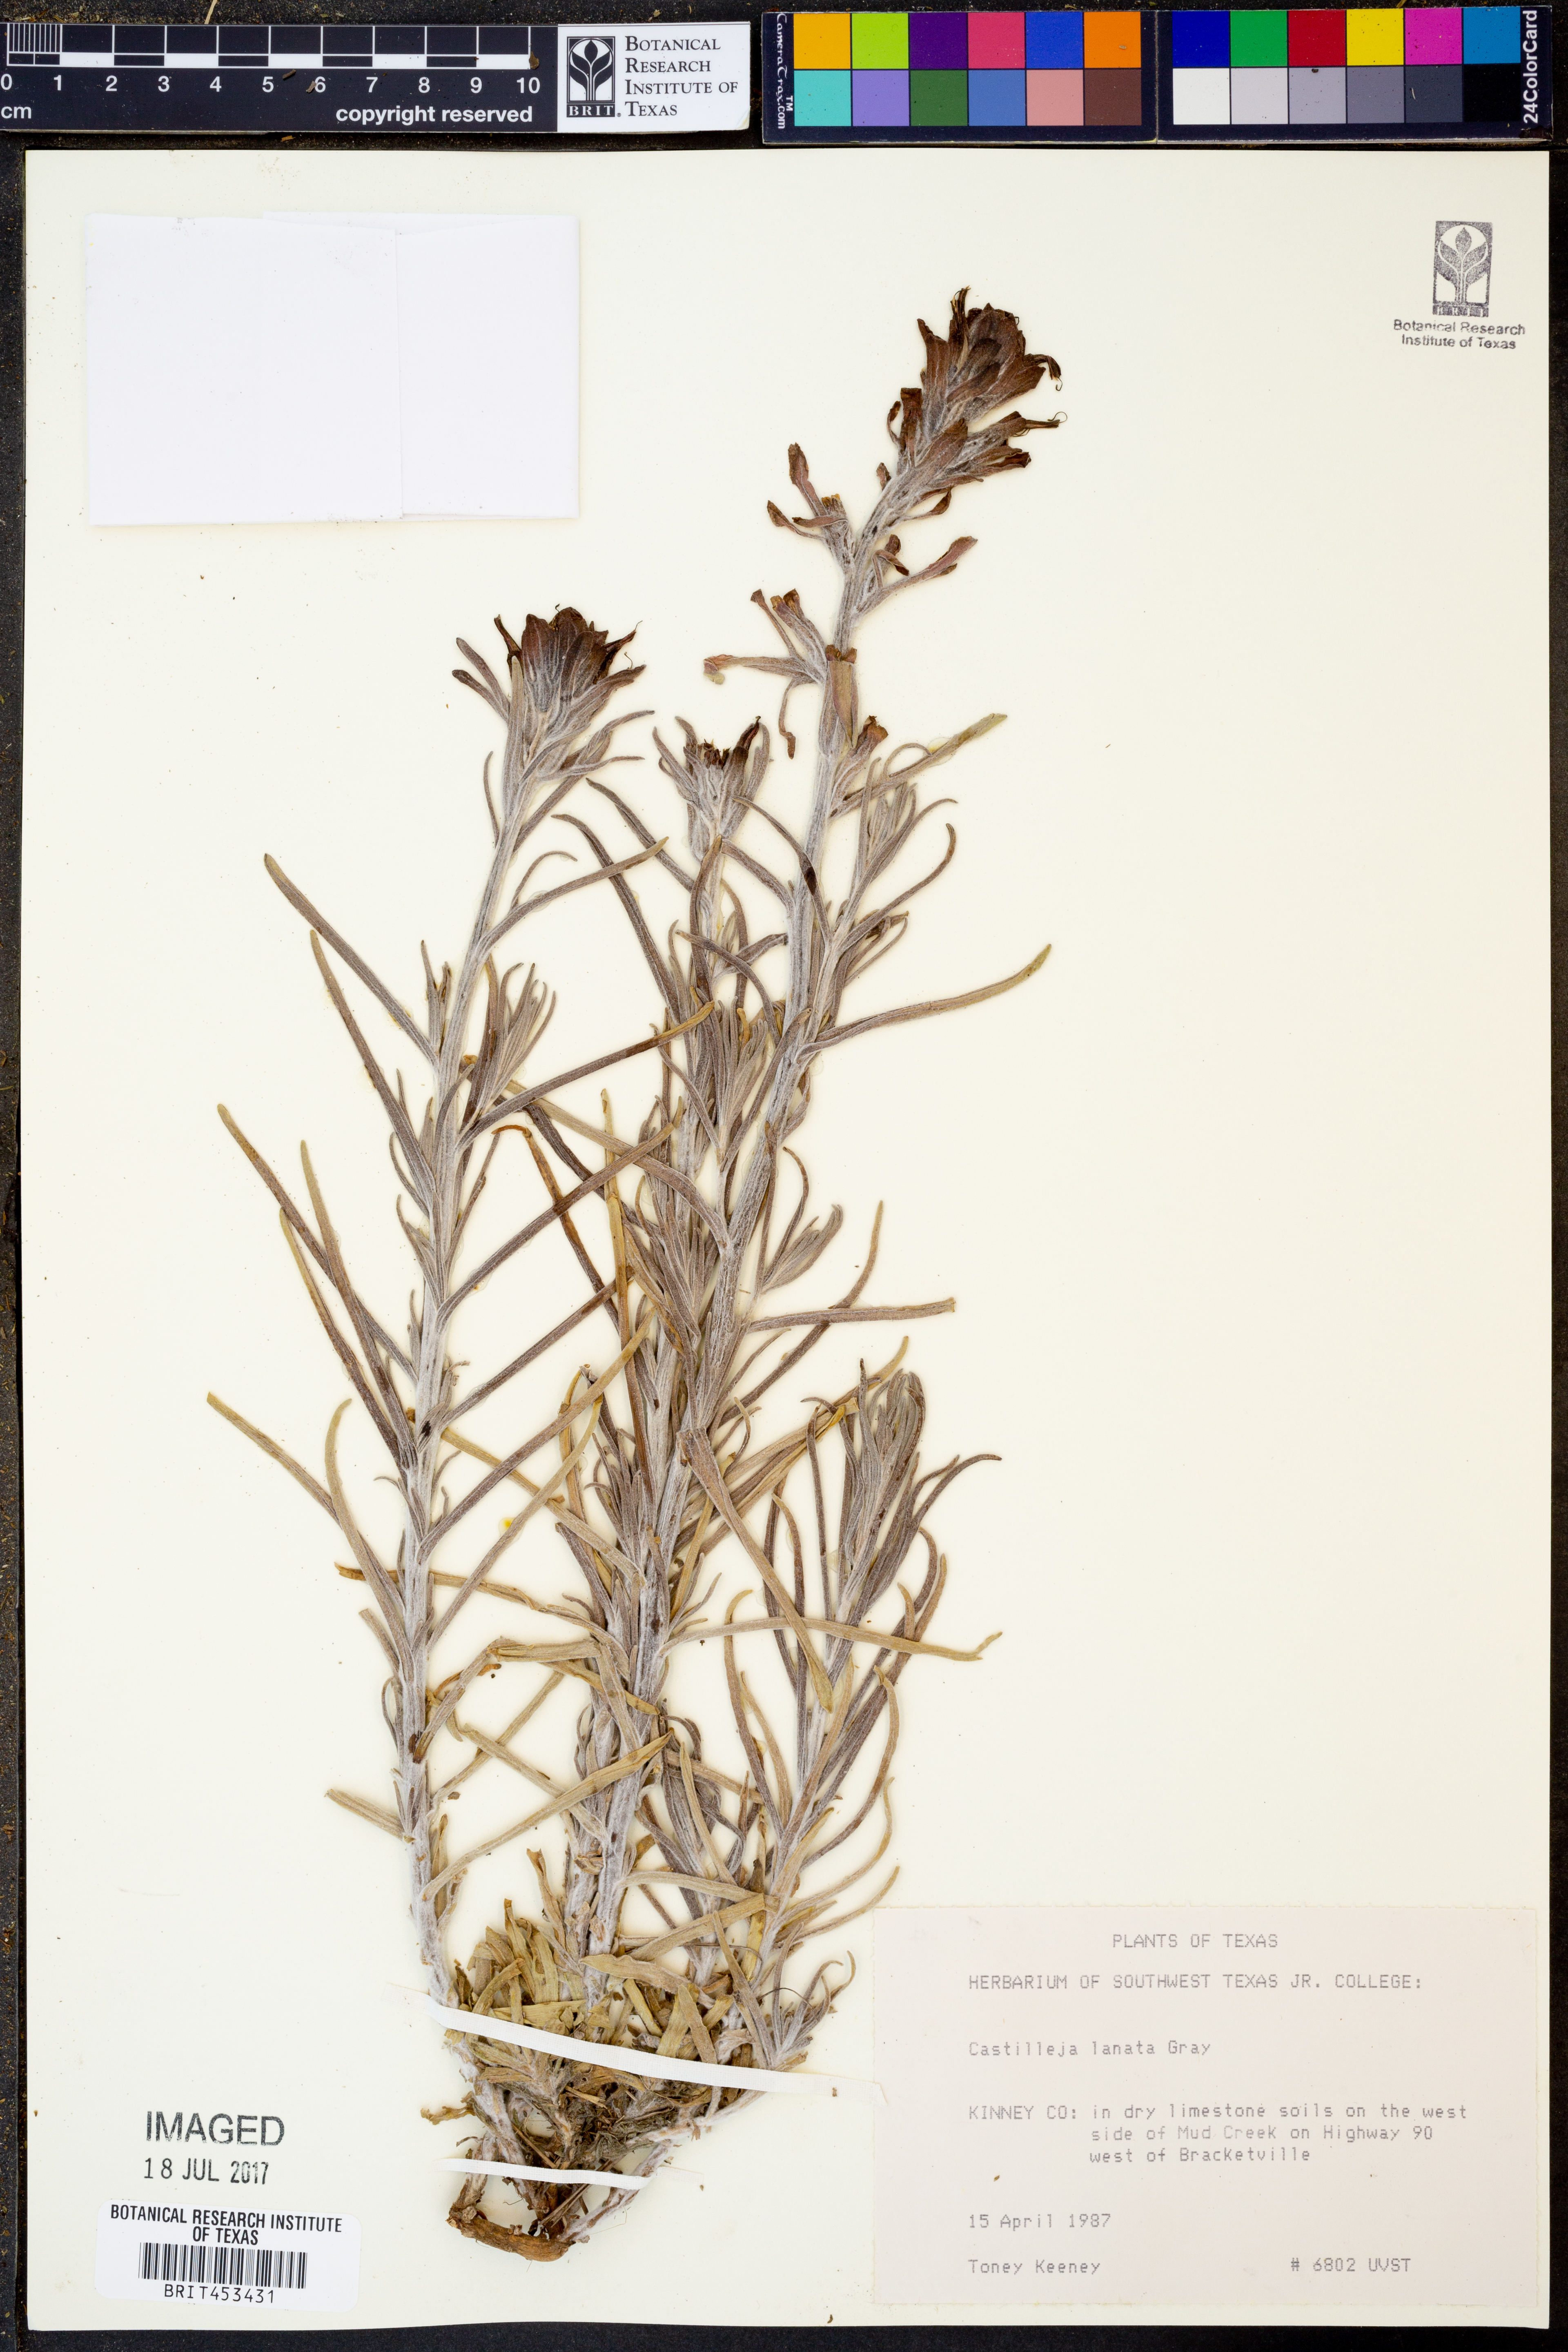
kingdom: Plantae
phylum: Tracheophyta
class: Magnoliopsida
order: Lamiales
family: Orobanchaceae
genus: Castilleja
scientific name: Castilleja lanata
